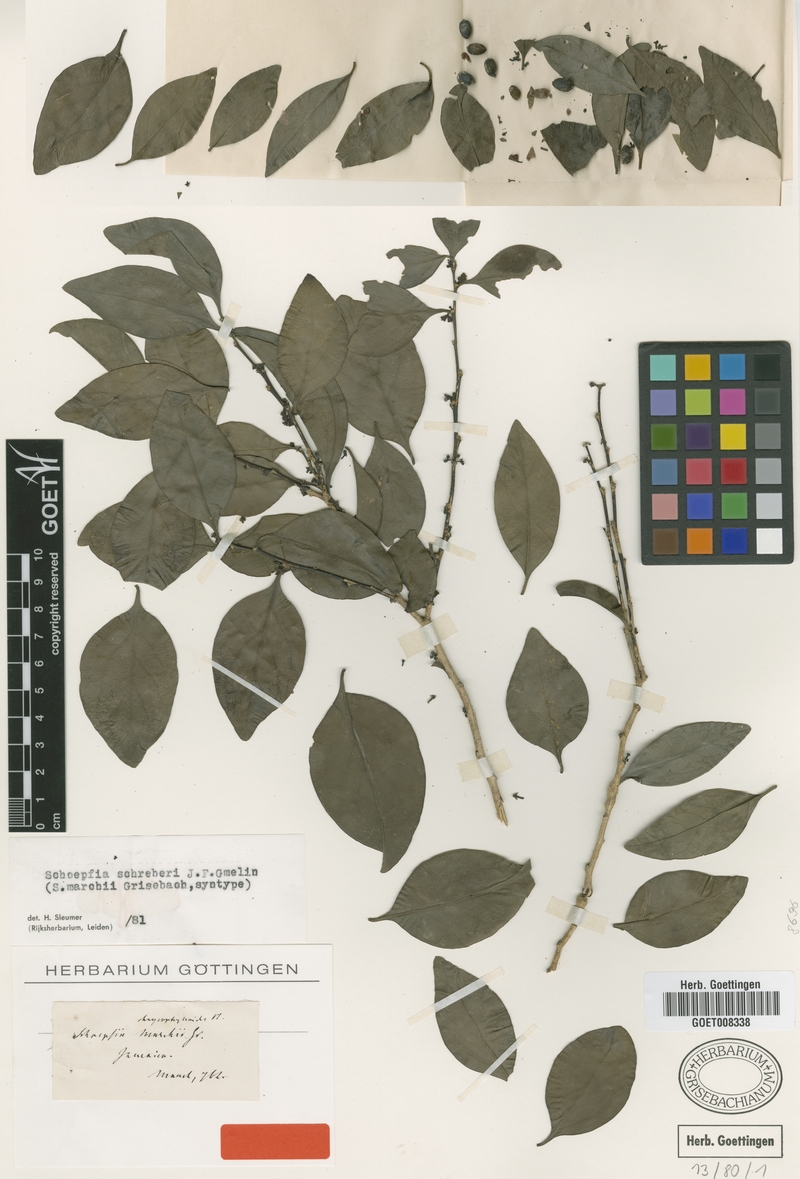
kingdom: Plantae
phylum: Tracheophyta
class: Magnoliopsida
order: Santalales
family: Schoepfiaceae
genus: Schoepfia
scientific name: Schoepfia schreberi
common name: Gulf graytwig
